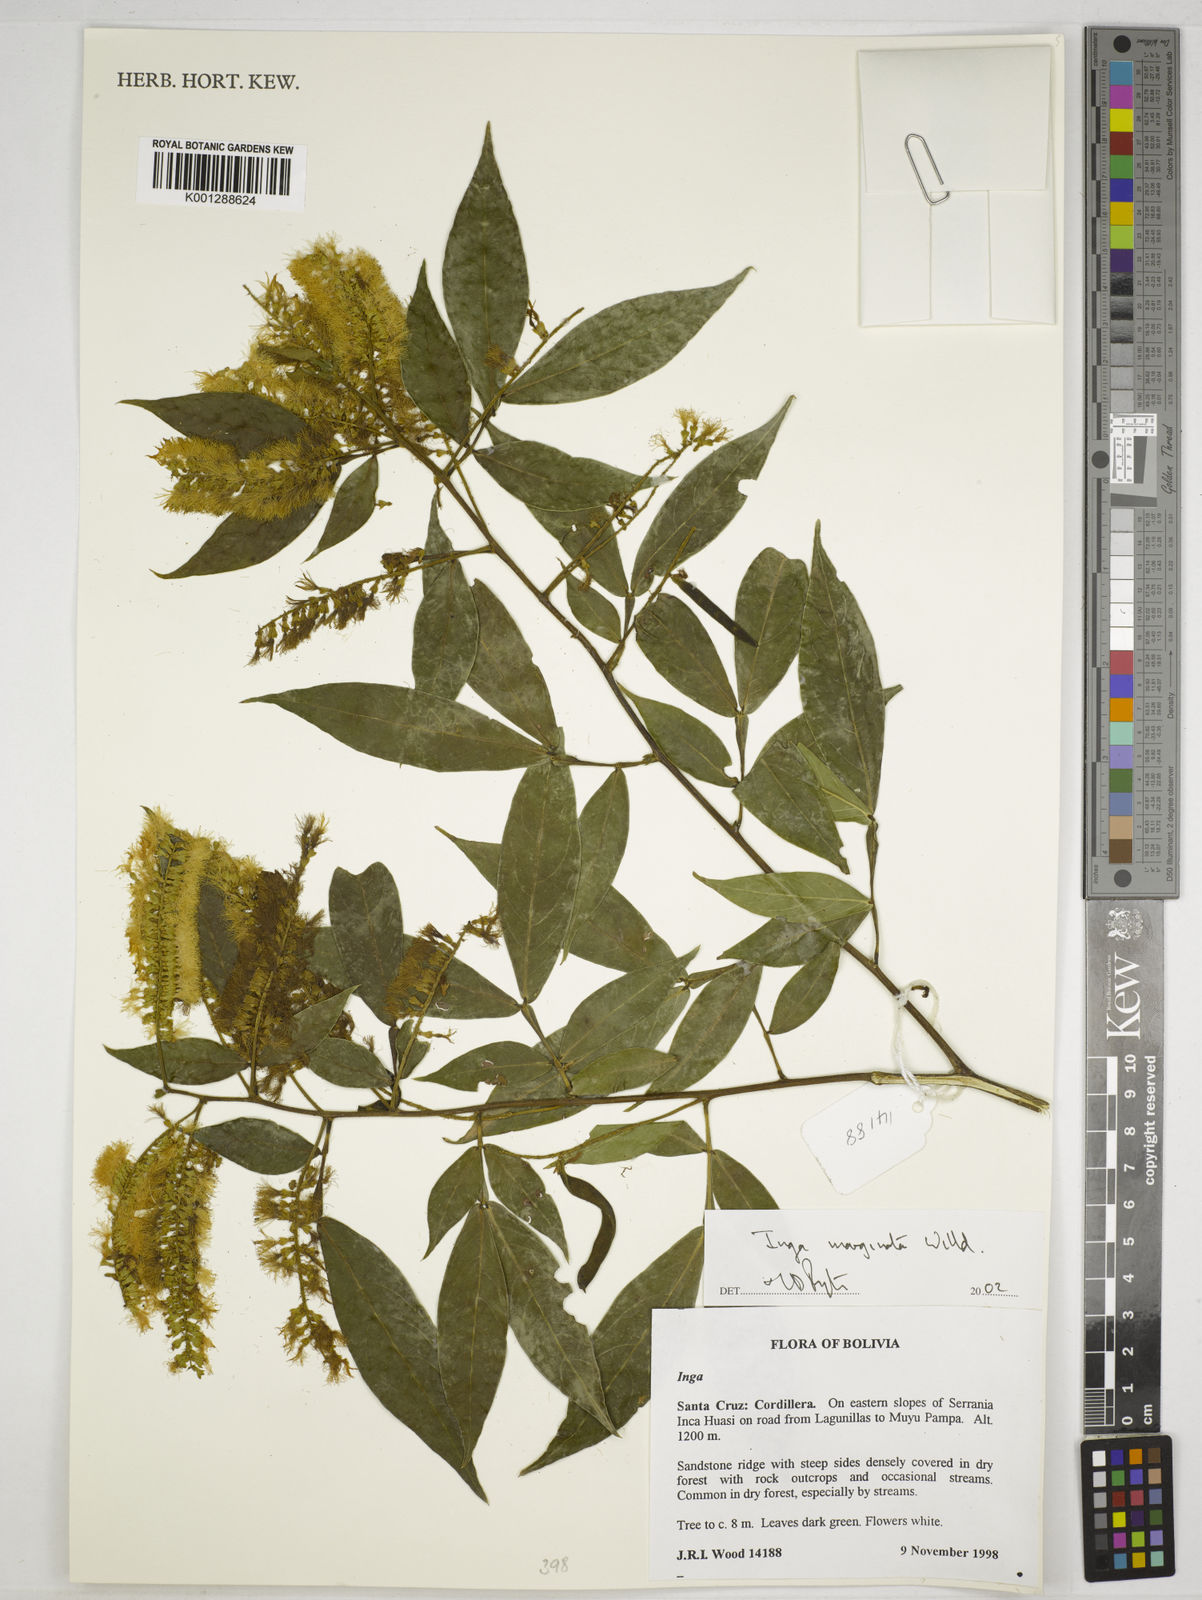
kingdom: Plantae
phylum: Tracheophyta
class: Magnoliopsida
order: Fabales
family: Fabaceae
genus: Inga
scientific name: Inga marginata
